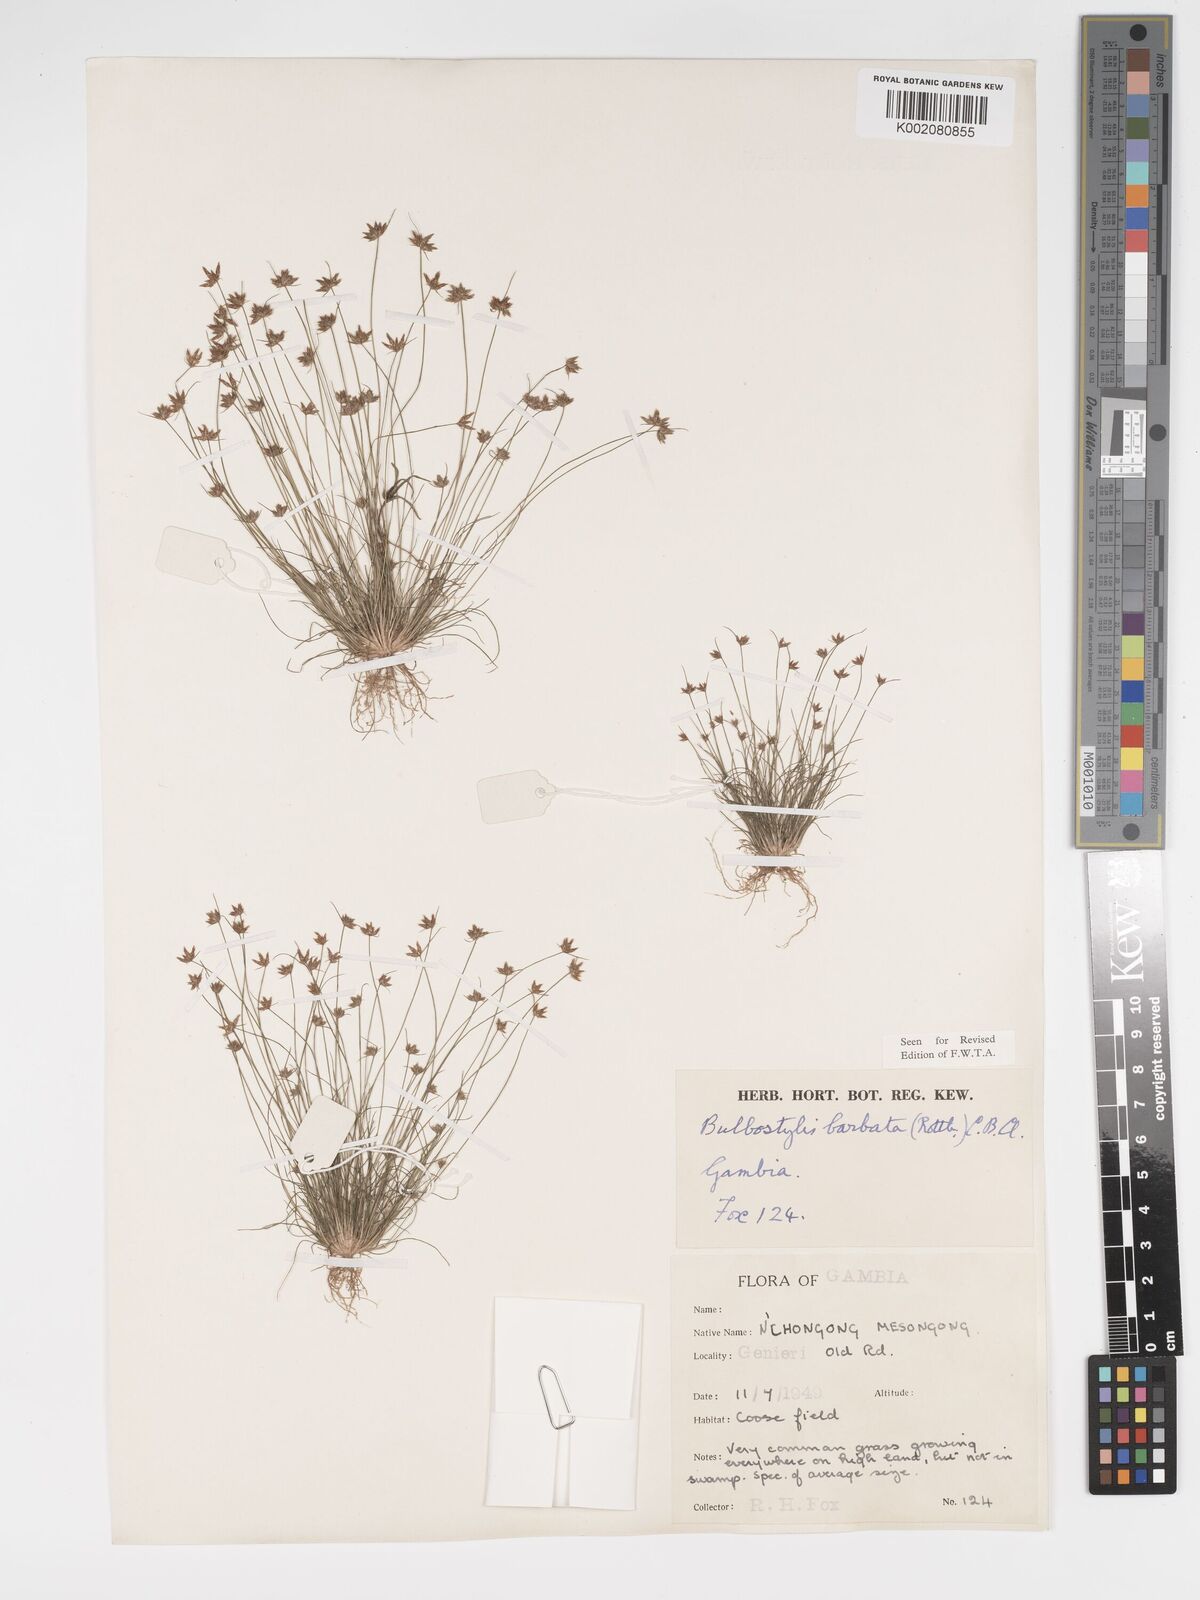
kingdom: Plantae
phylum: Tracheophyta
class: Liliopsida
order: Poales
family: Cyperaceae
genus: Bulbostylis
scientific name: Bulbostylis barbata
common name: Watergrass
